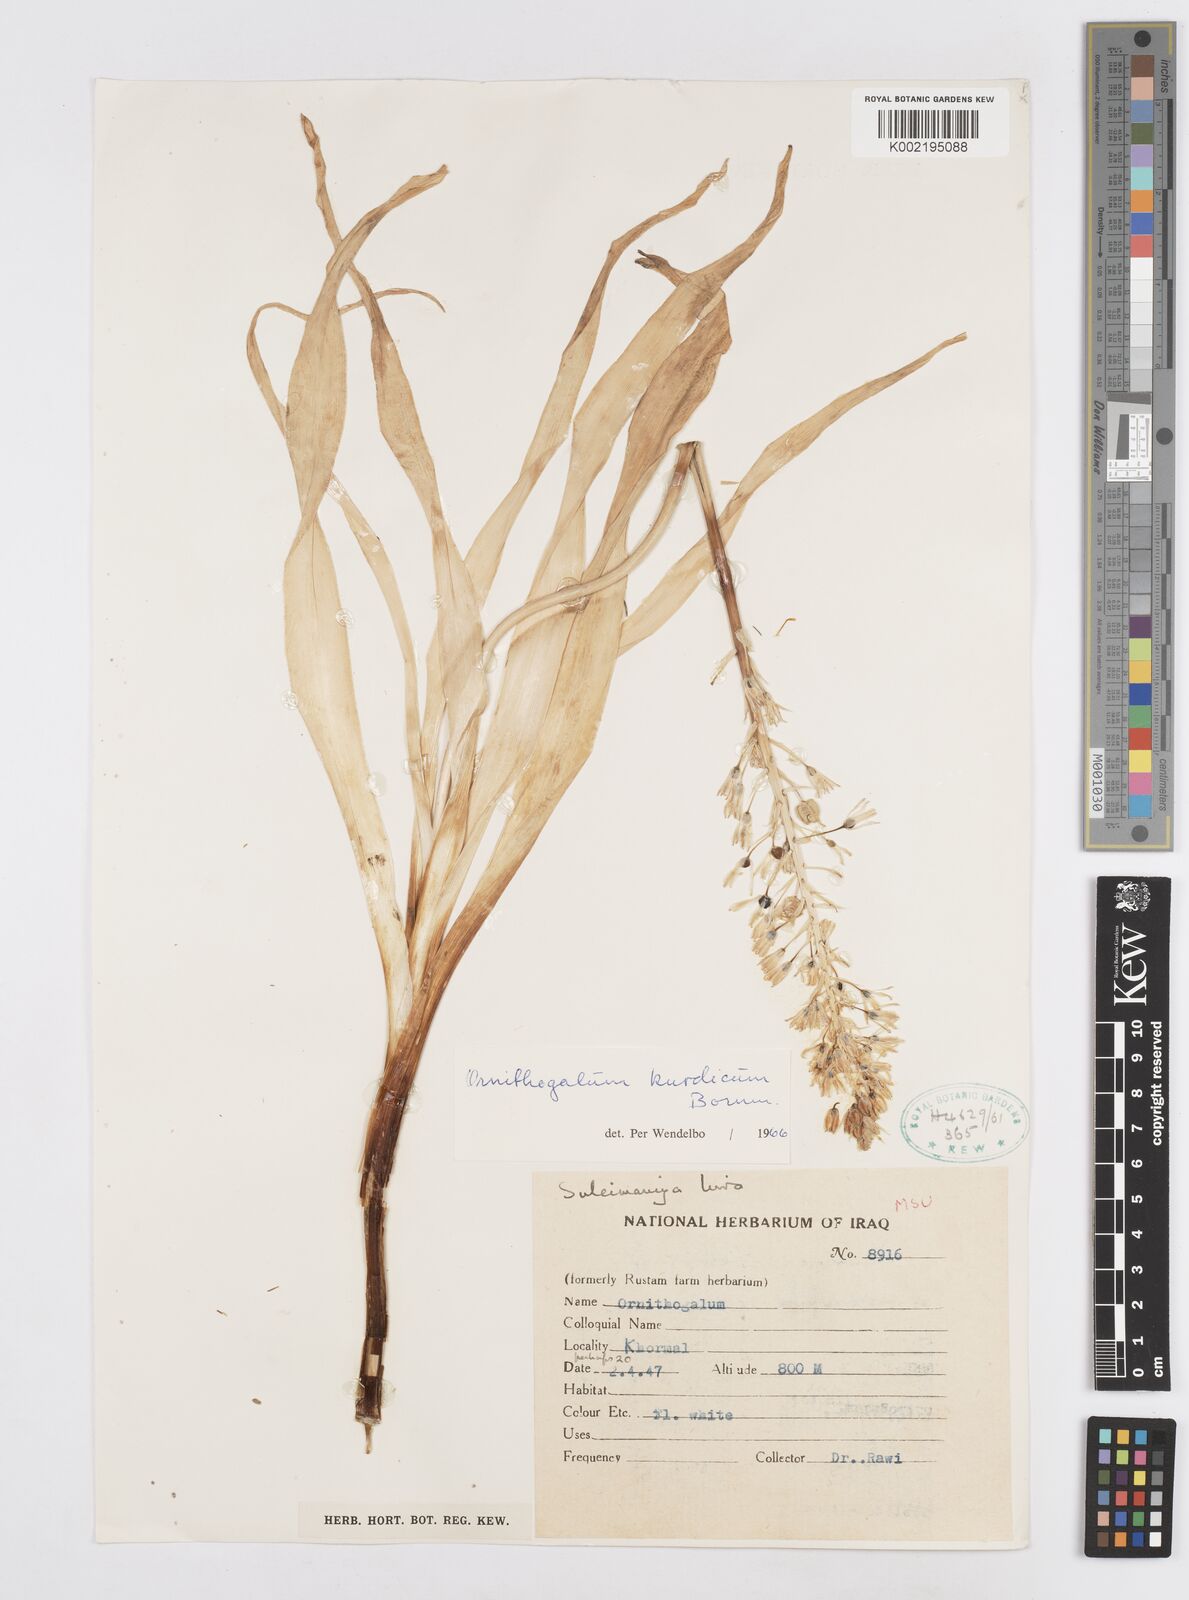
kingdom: Plantae
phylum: Tracheophyta
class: Liliopsida
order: Asparagales
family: Asparagaceae
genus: Ornithogalum
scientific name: Ornithogalum kurdicum
